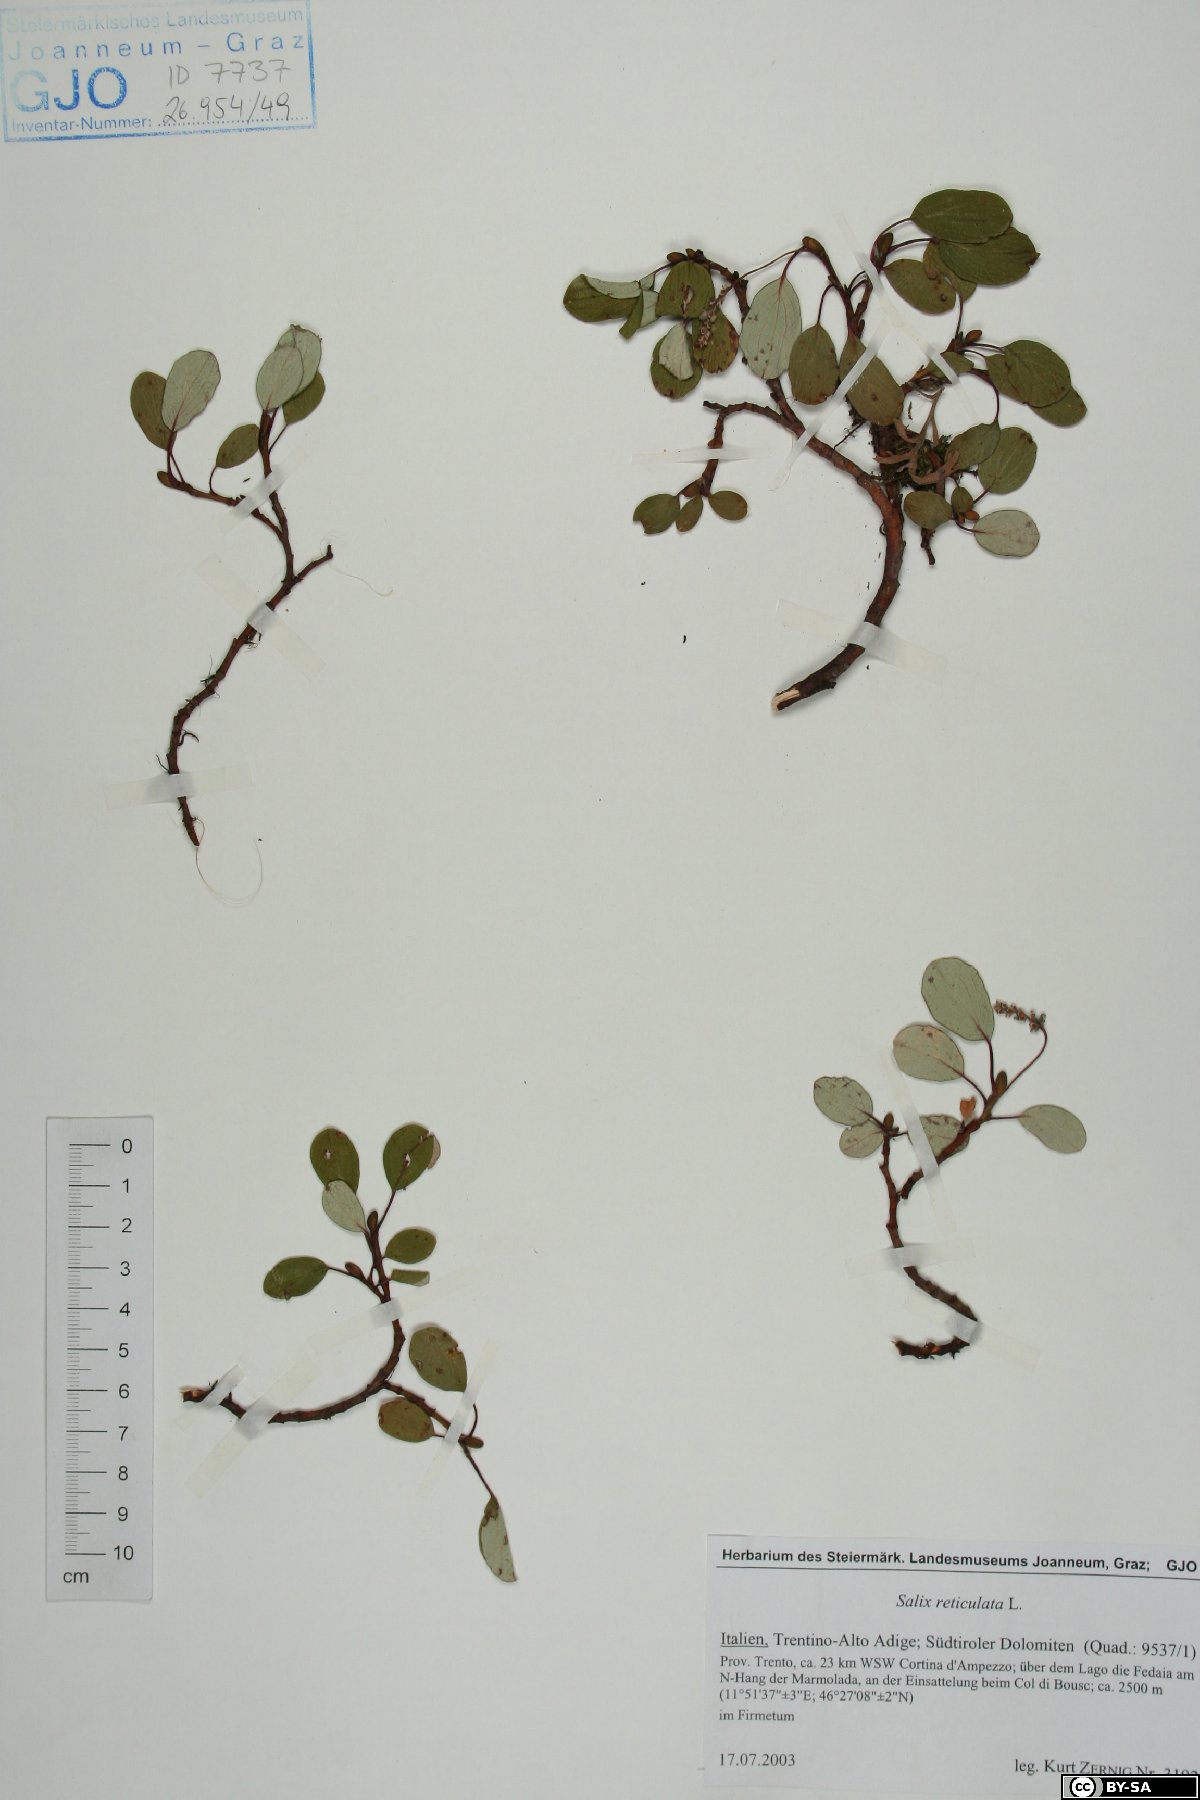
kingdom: Plantae
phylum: Tracheophyta
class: Magnoliopsida
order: Malpighiales
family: Salicaceae
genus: Salix
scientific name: Salix reticulata
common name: Net-leaved willow
